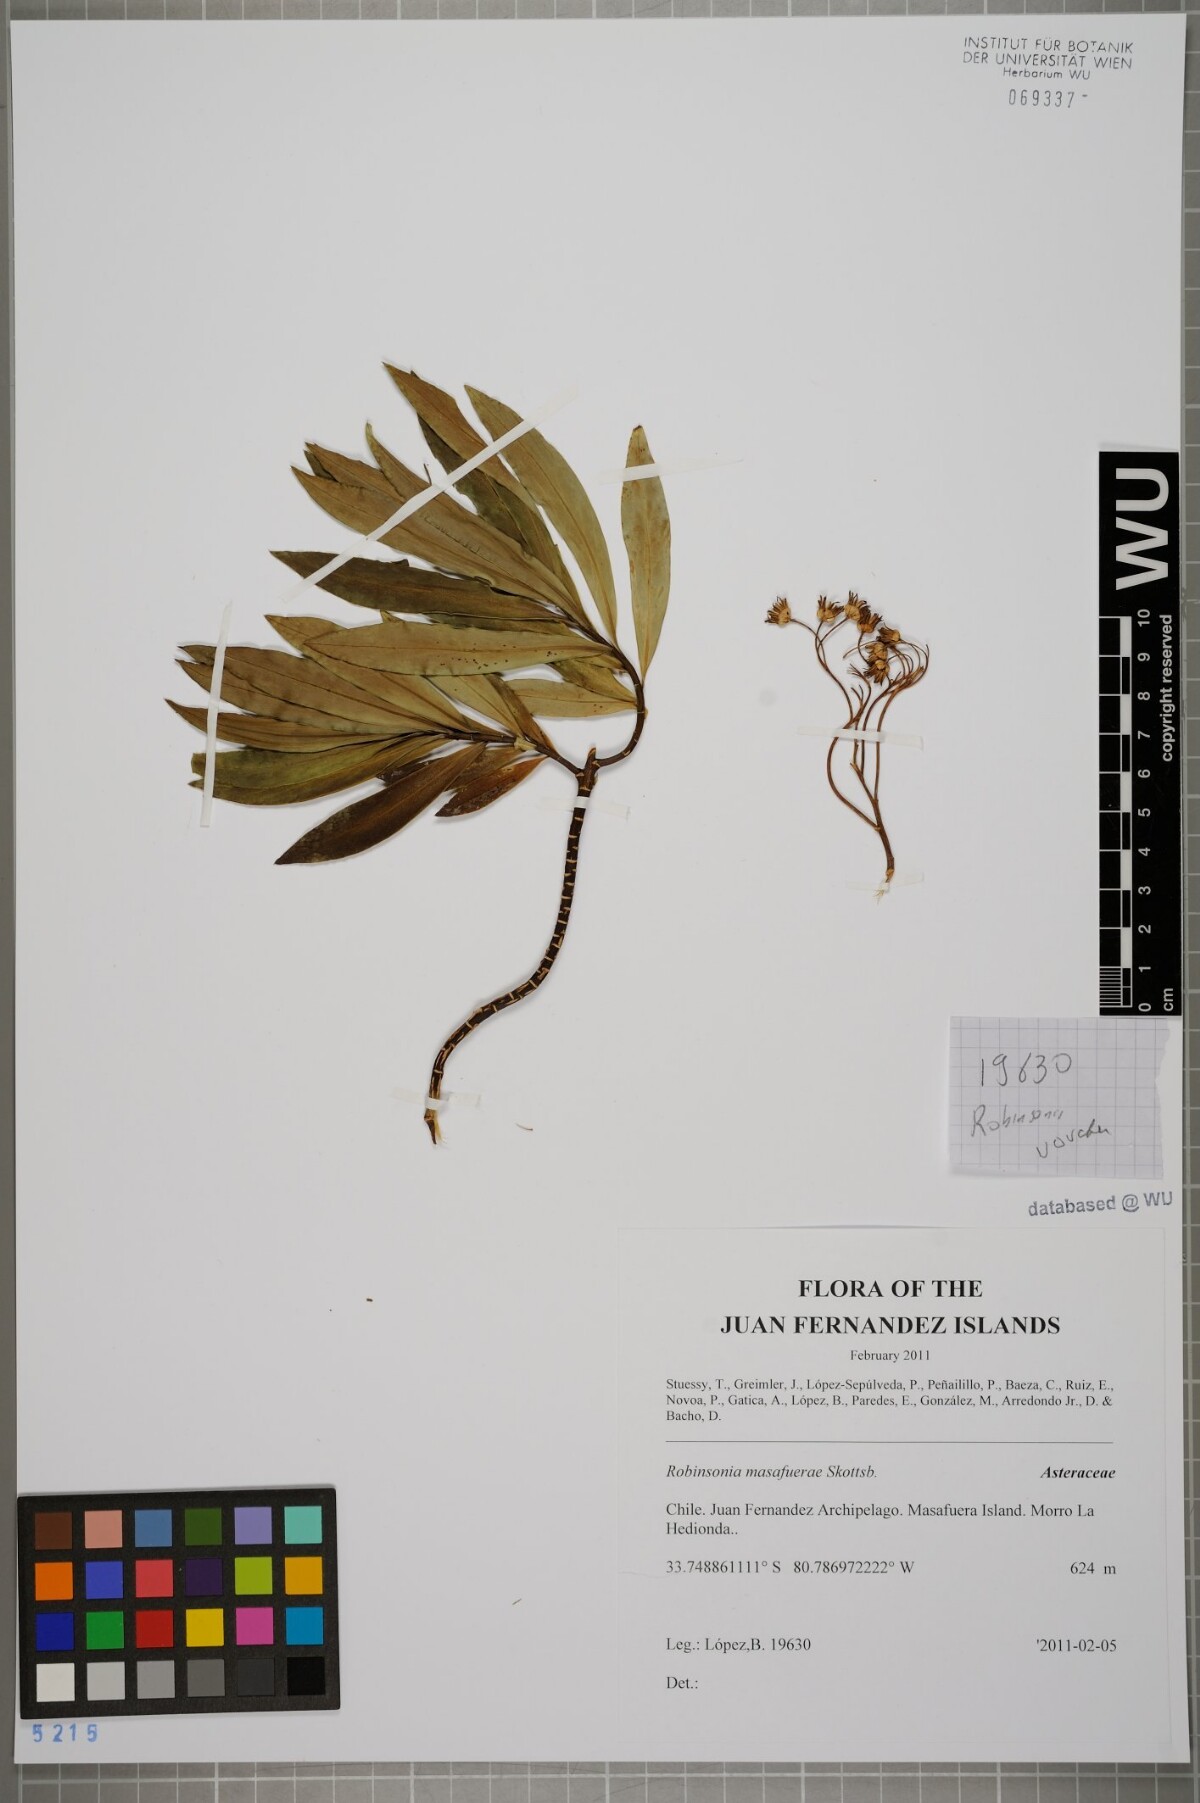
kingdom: Plantae
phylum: Tracheophyta
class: Magnoliopsida
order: Asterales
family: Asteraceae
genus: Robinsonia
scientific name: Robinsonia masafuerae
